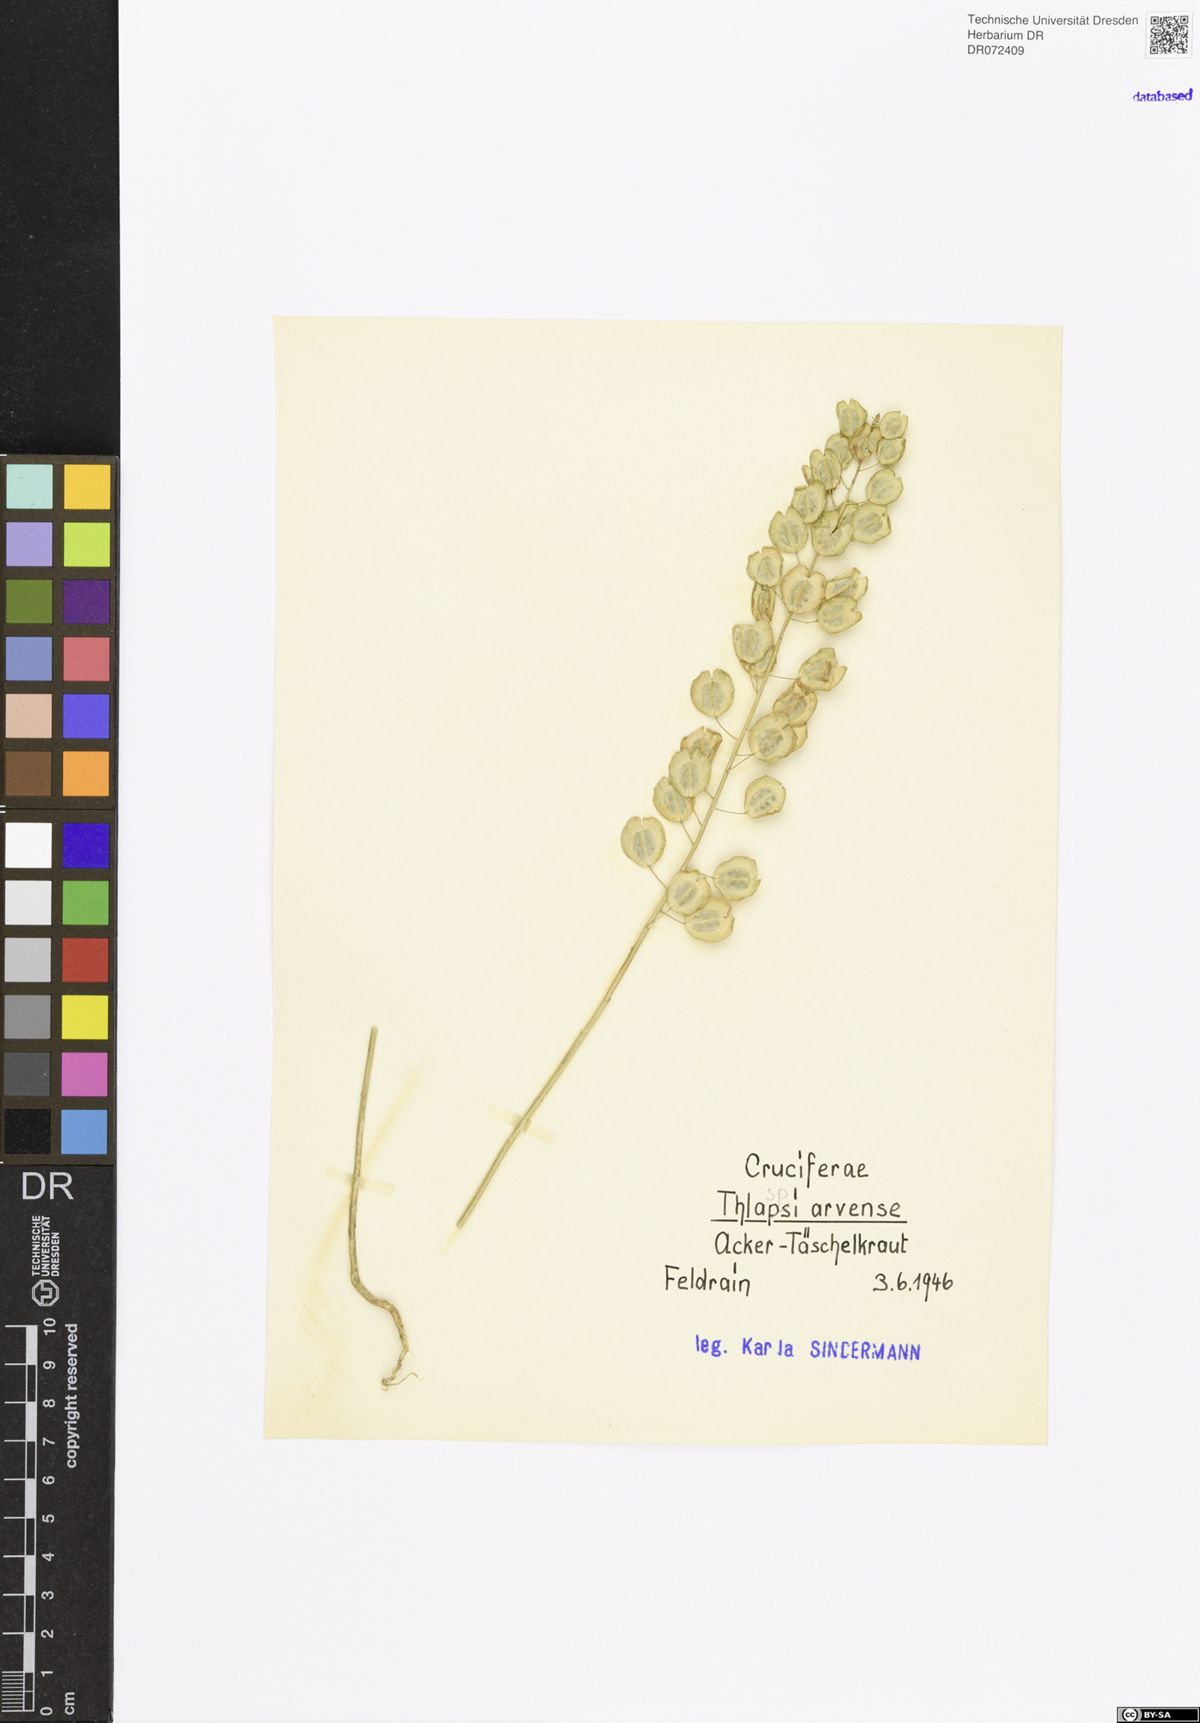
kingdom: Plantae
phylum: Tracheophyta
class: Magnoliopsida
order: Brassicales
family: Brassicaceae
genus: Thlaspi
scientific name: Thlaspi arvense
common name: Field pennycress
